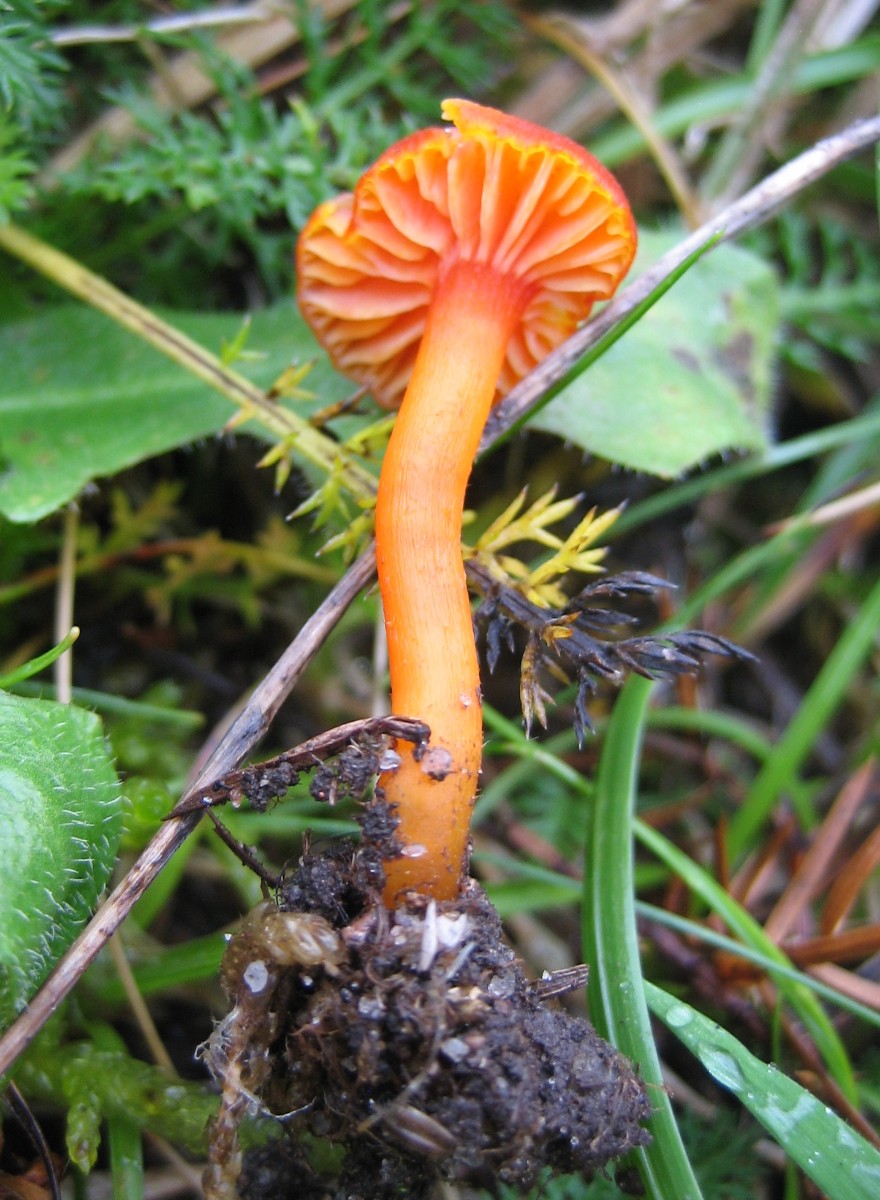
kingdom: Fungi
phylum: Basidiomycota
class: Agaricomycetes
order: Agaricales
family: Hygrophoraceae
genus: Hygrocybe
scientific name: Hygrocybe
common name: vokshat
